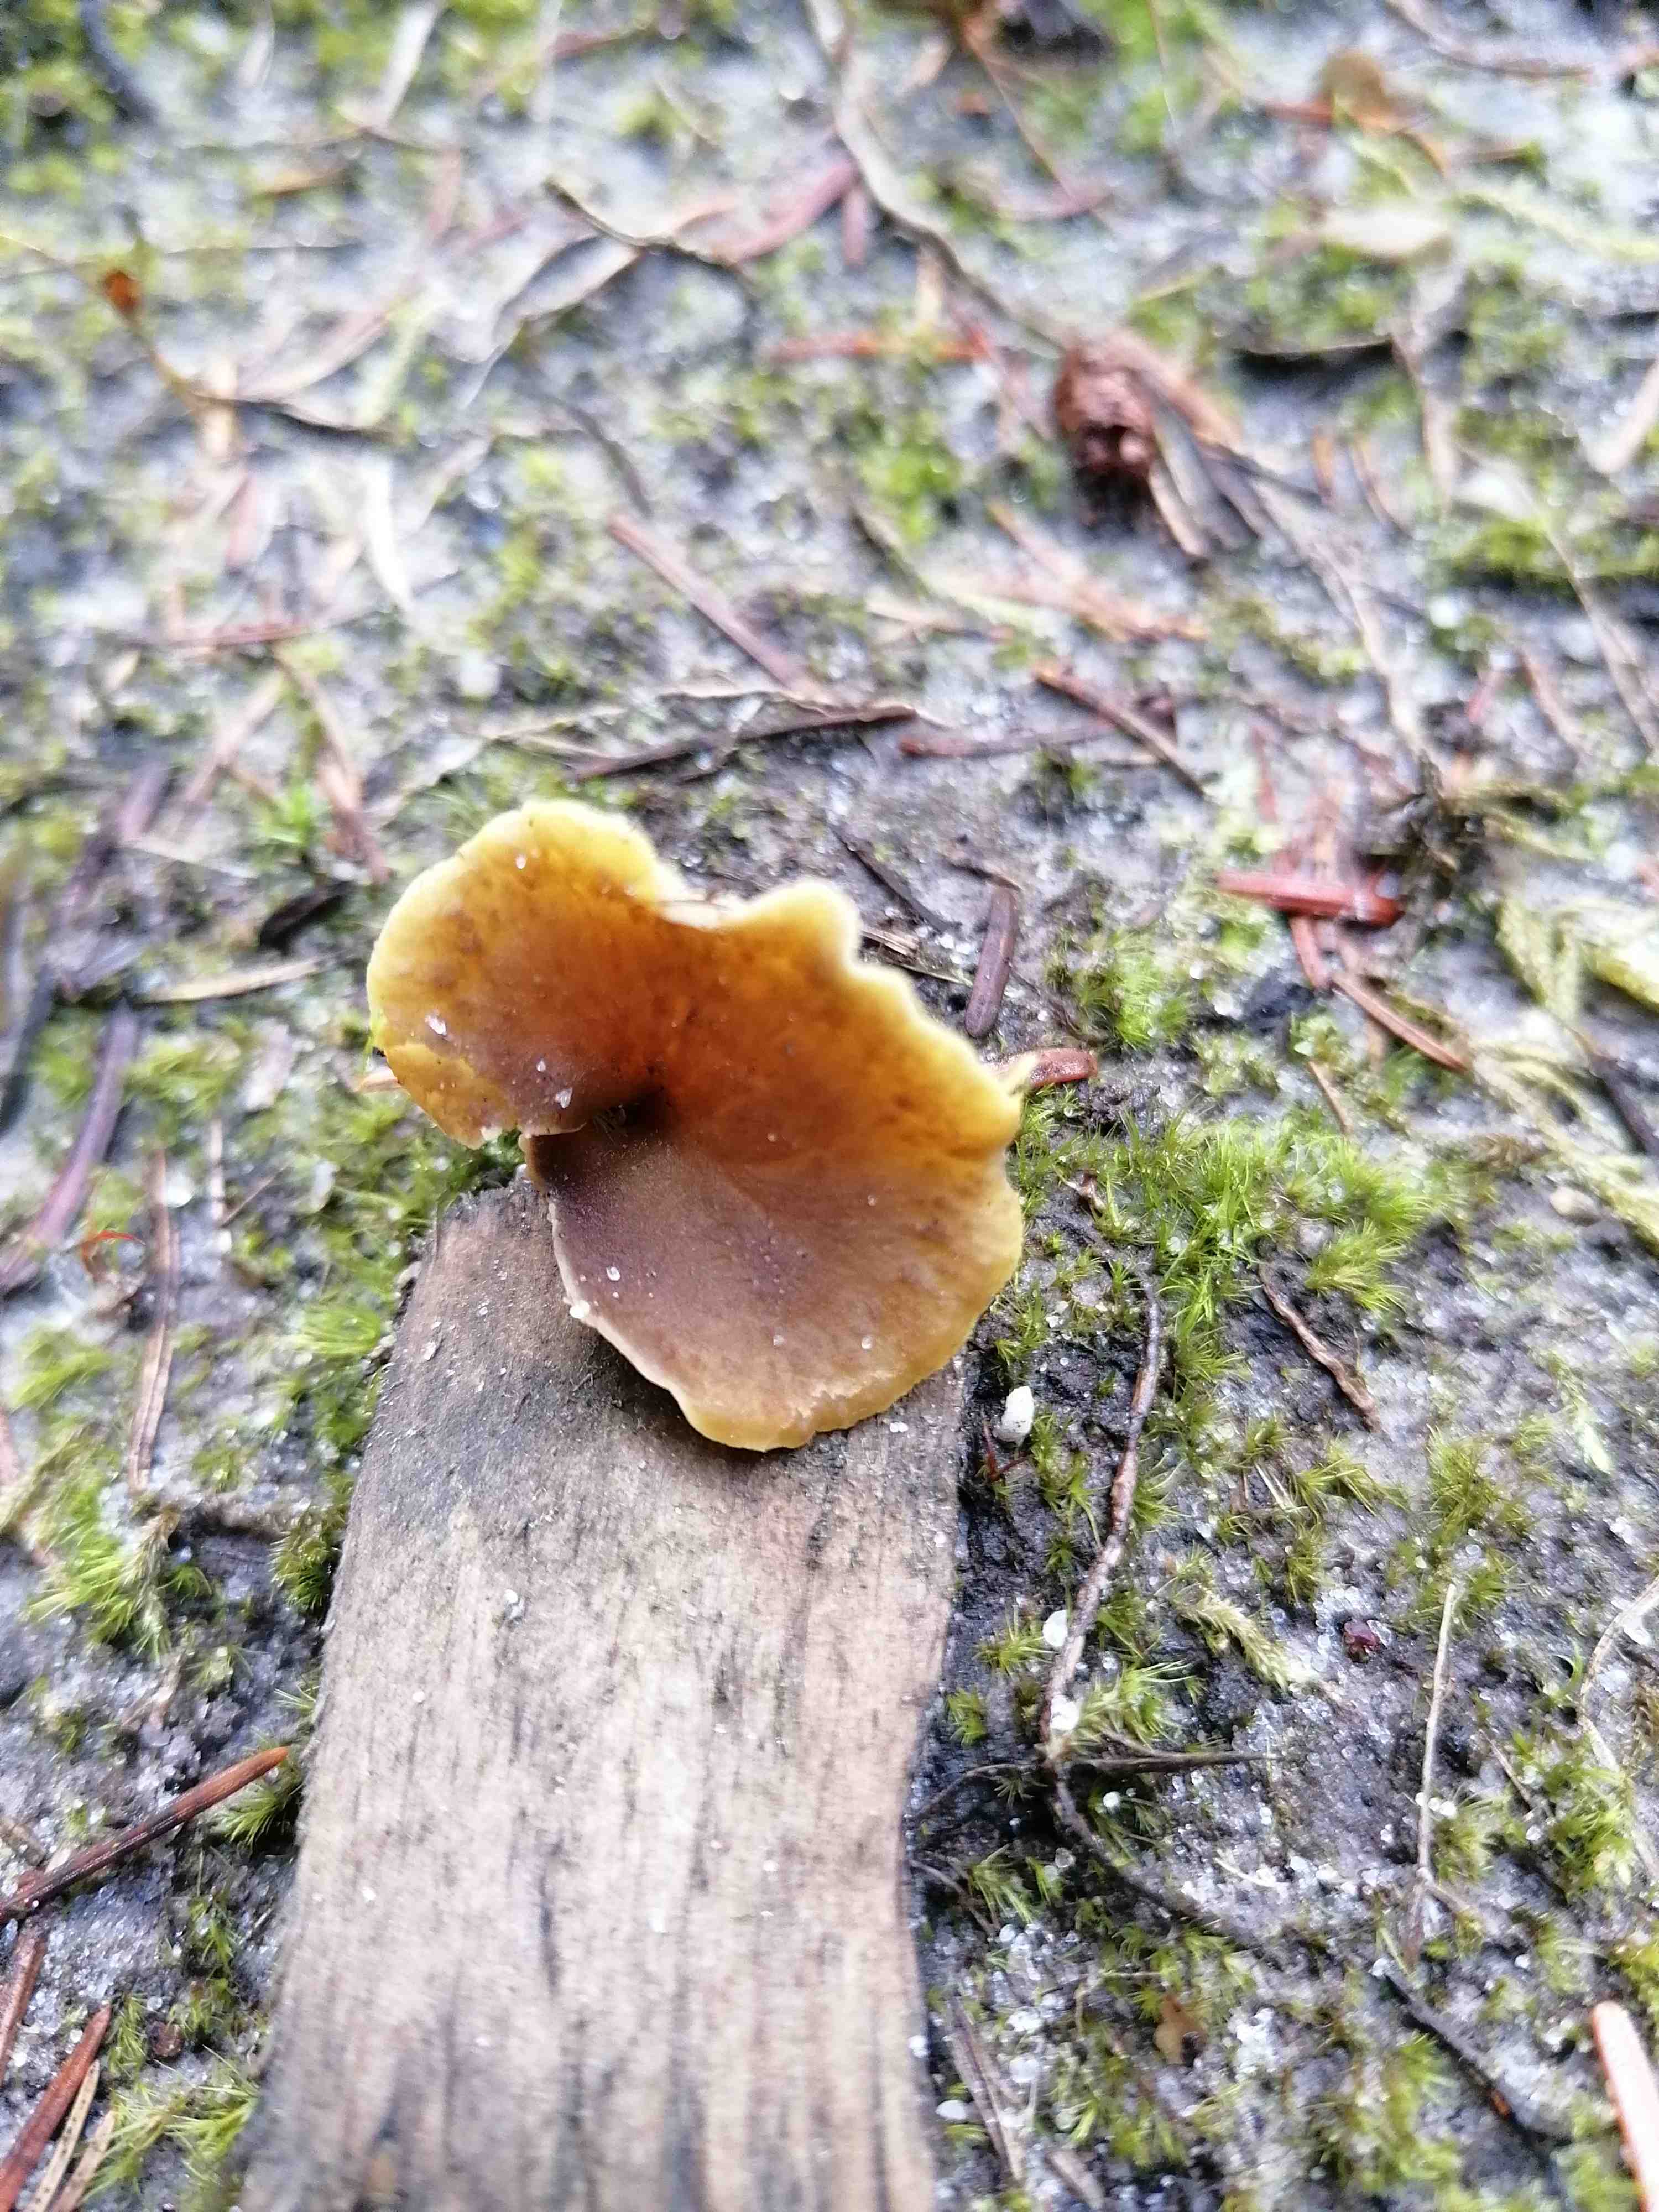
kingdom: Fungi
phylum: Basidiomycota
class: Agaricomycetes
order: Cantharellales
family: Hydnaceae
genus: Craterellus
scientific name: Craterellus undulatus
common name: liden kantarel
